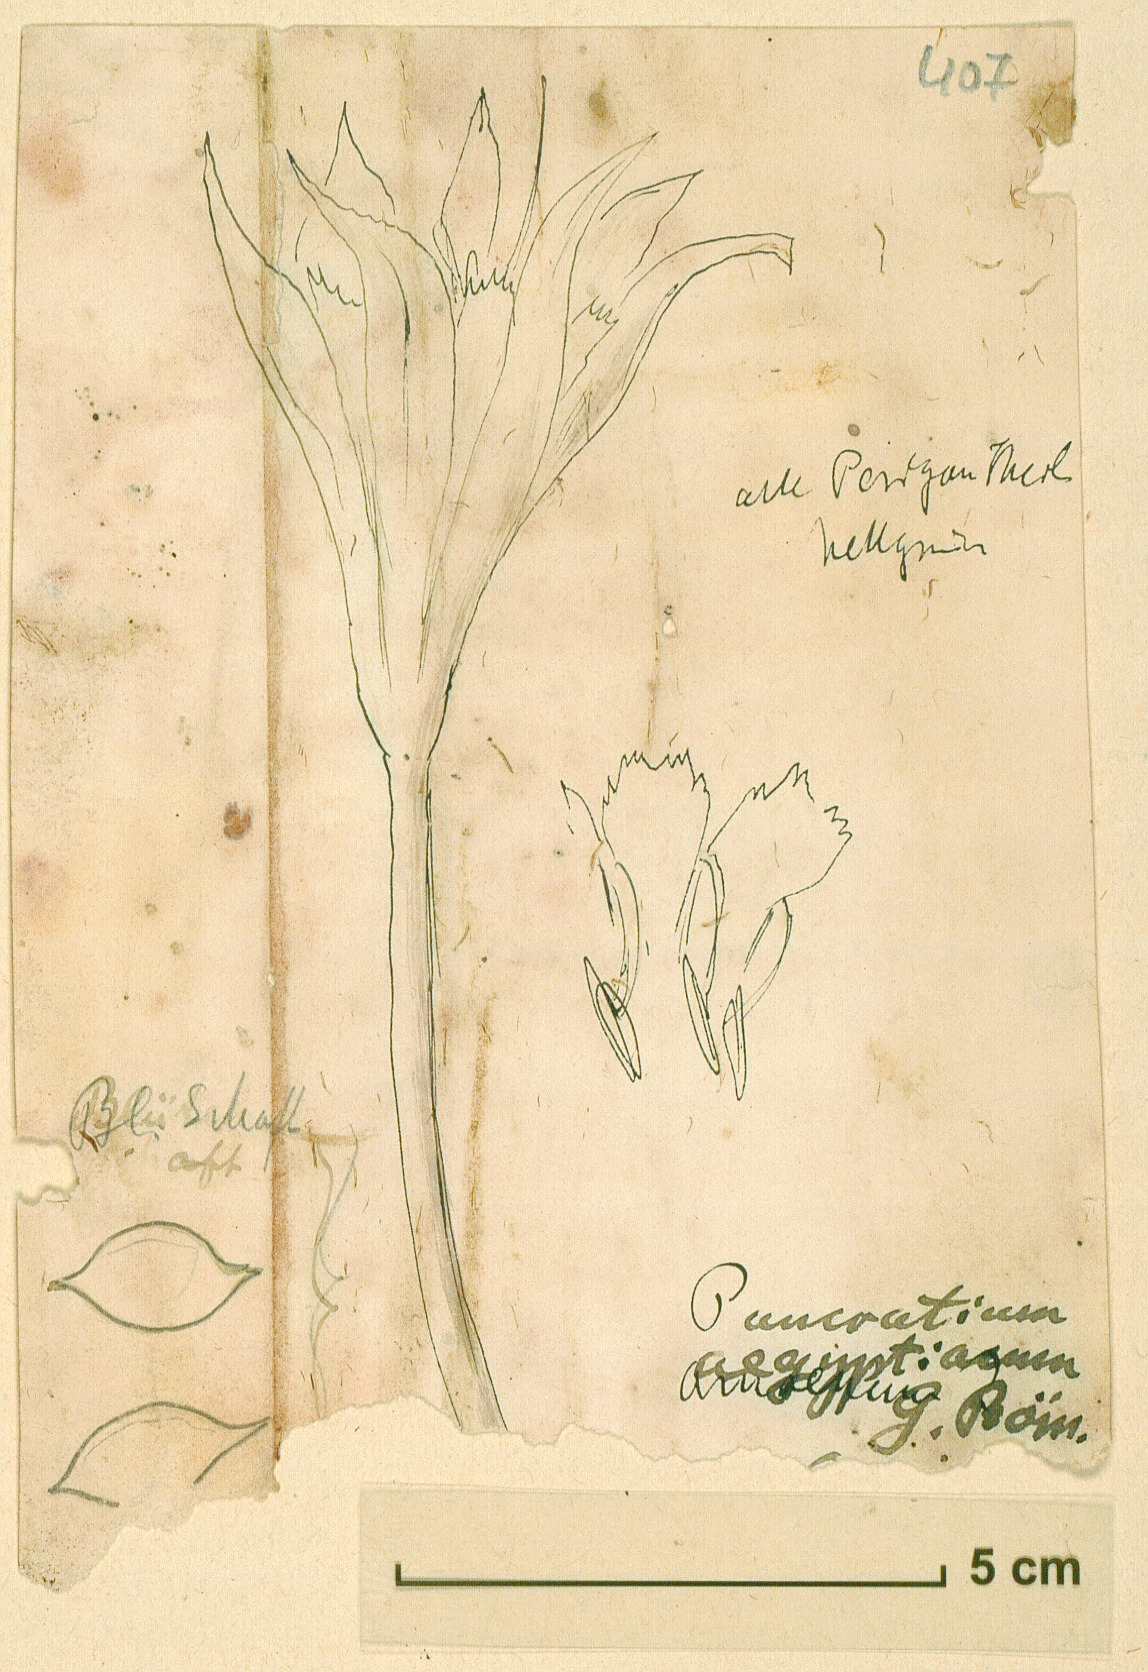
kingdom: Plantae
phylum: Tracheophyta
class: Liliopsida
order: Asparagales
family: Amaryllidaceae
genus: Pancratium
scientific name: Pancratium maritimum
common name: Sea-daffodil
